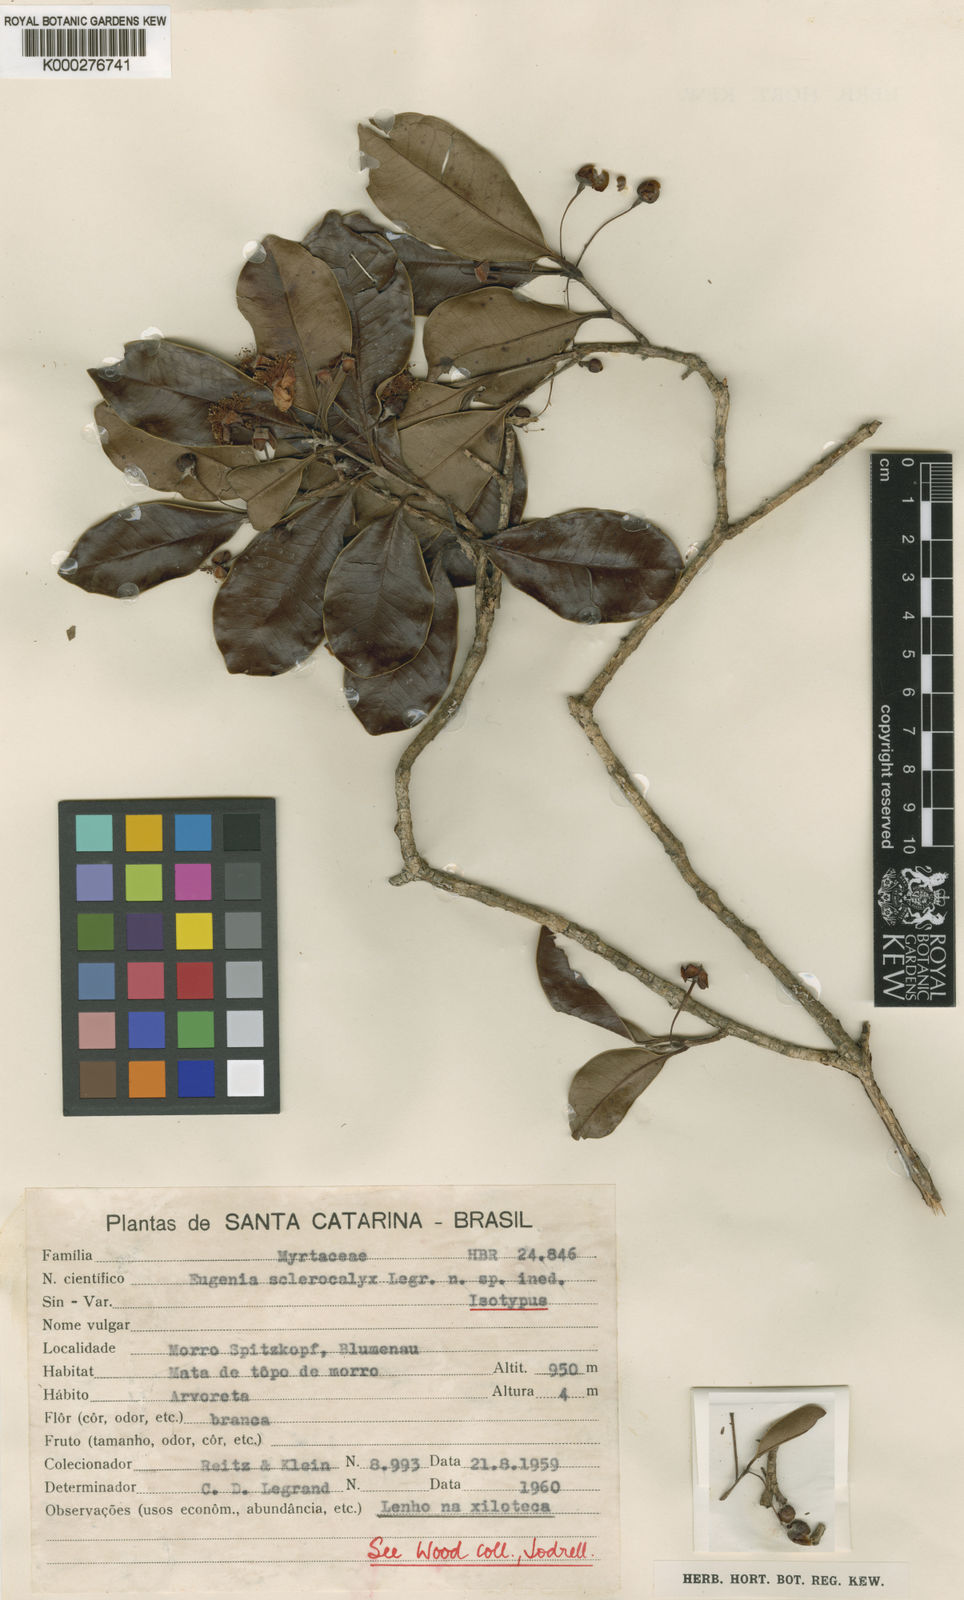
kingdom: Plantae
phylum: Tracheophyta
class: Magnoliopsida
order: Myrtales
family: Myrtaceae
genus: Eugenia
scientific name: Eugenia sclerocalyx
